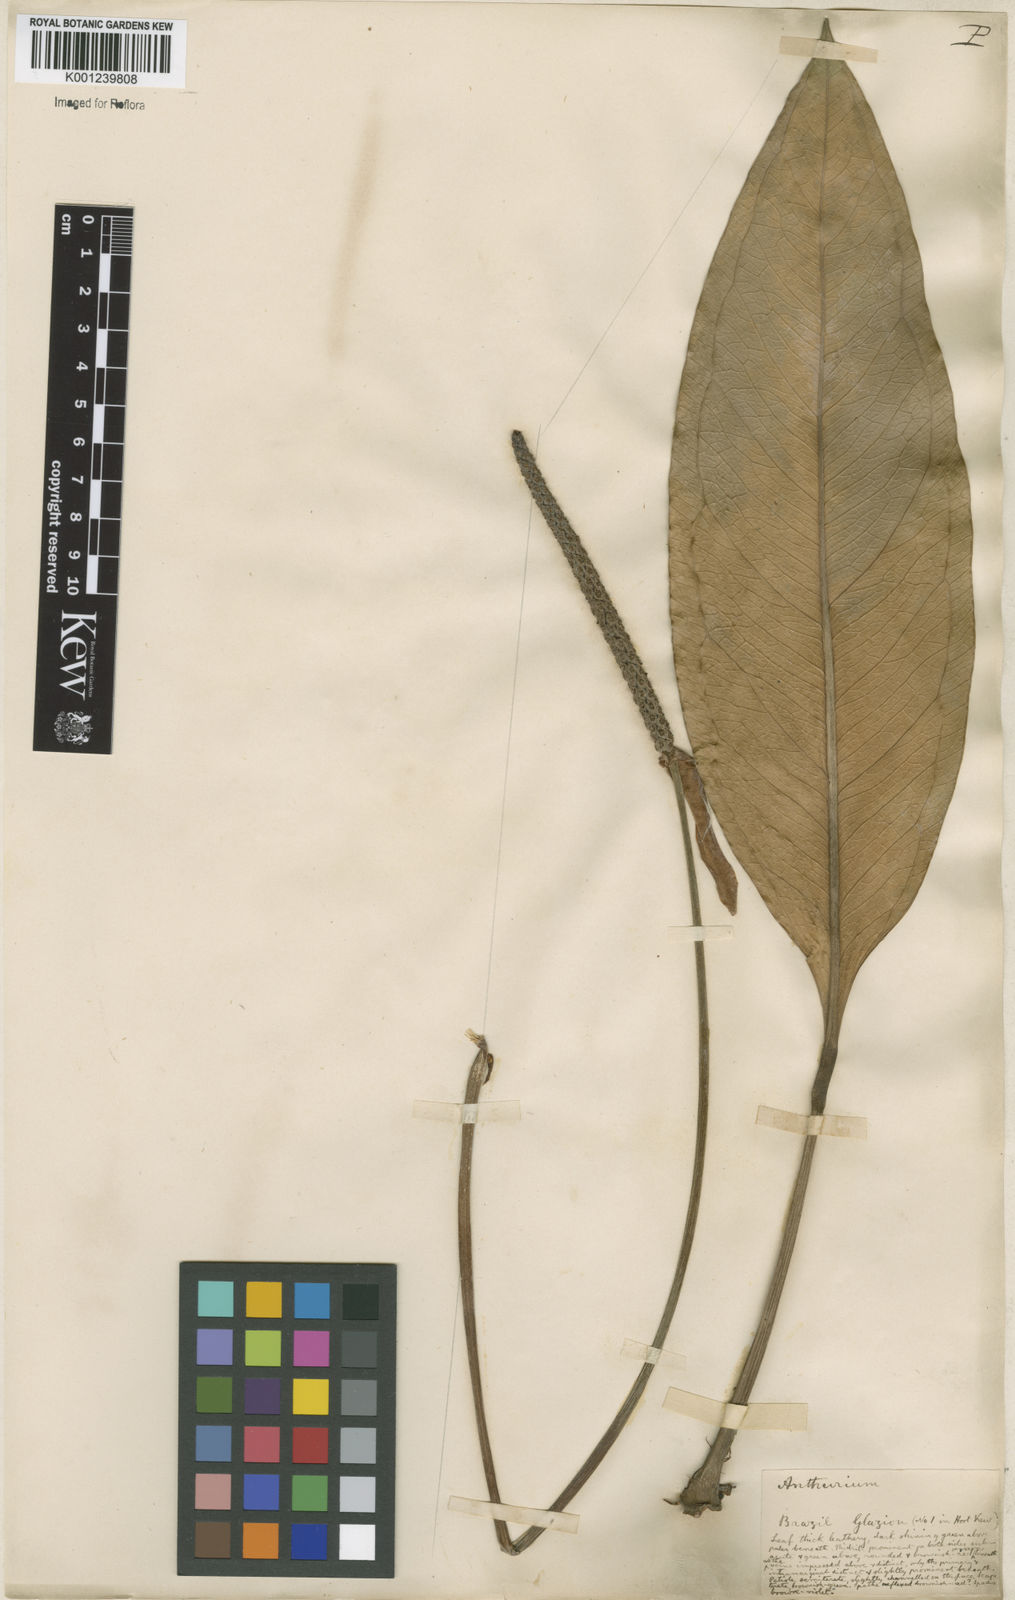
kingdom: Plantae
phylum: Tracheophyta
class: Liliopsida
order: Alismatales
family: Araceae
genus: Anthurium
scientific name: Anthurium
